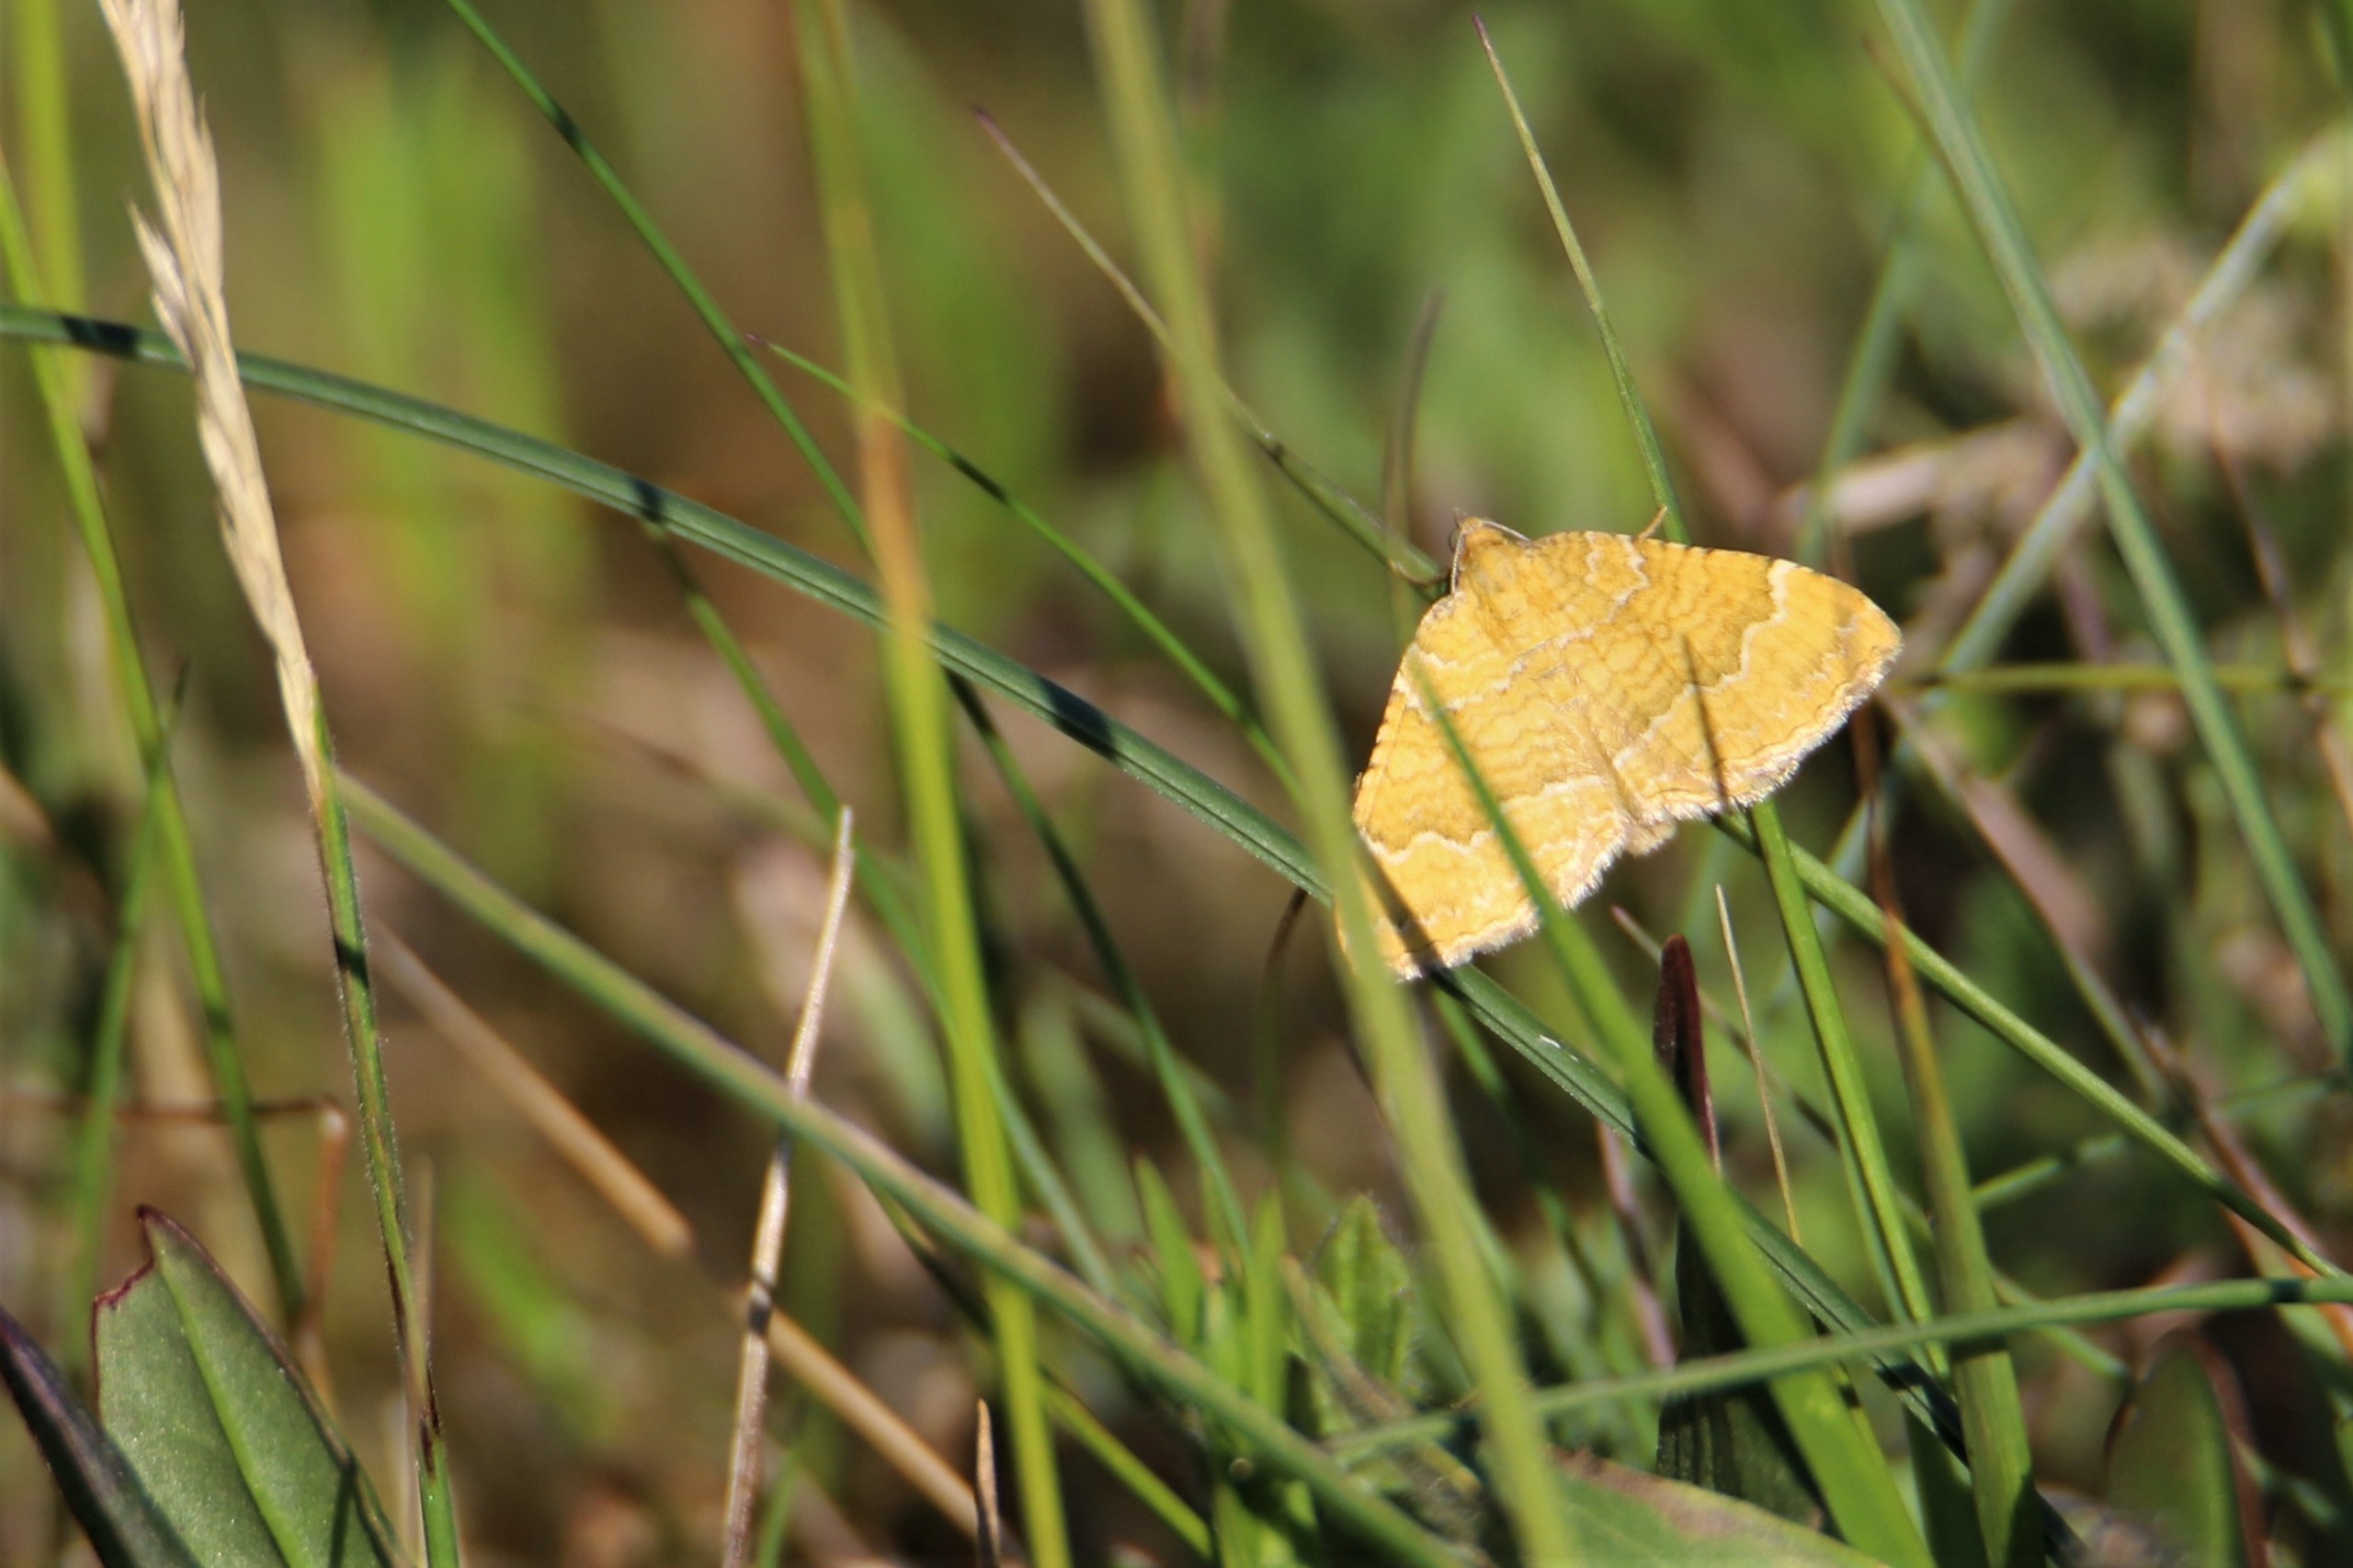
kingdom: Animalia
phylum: Arthropoda
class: Insecta
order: Lepidoptera
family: Geometridae
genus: Camptogramma
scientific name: Camptogramma bilineata
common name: Okkergul bladmåler
